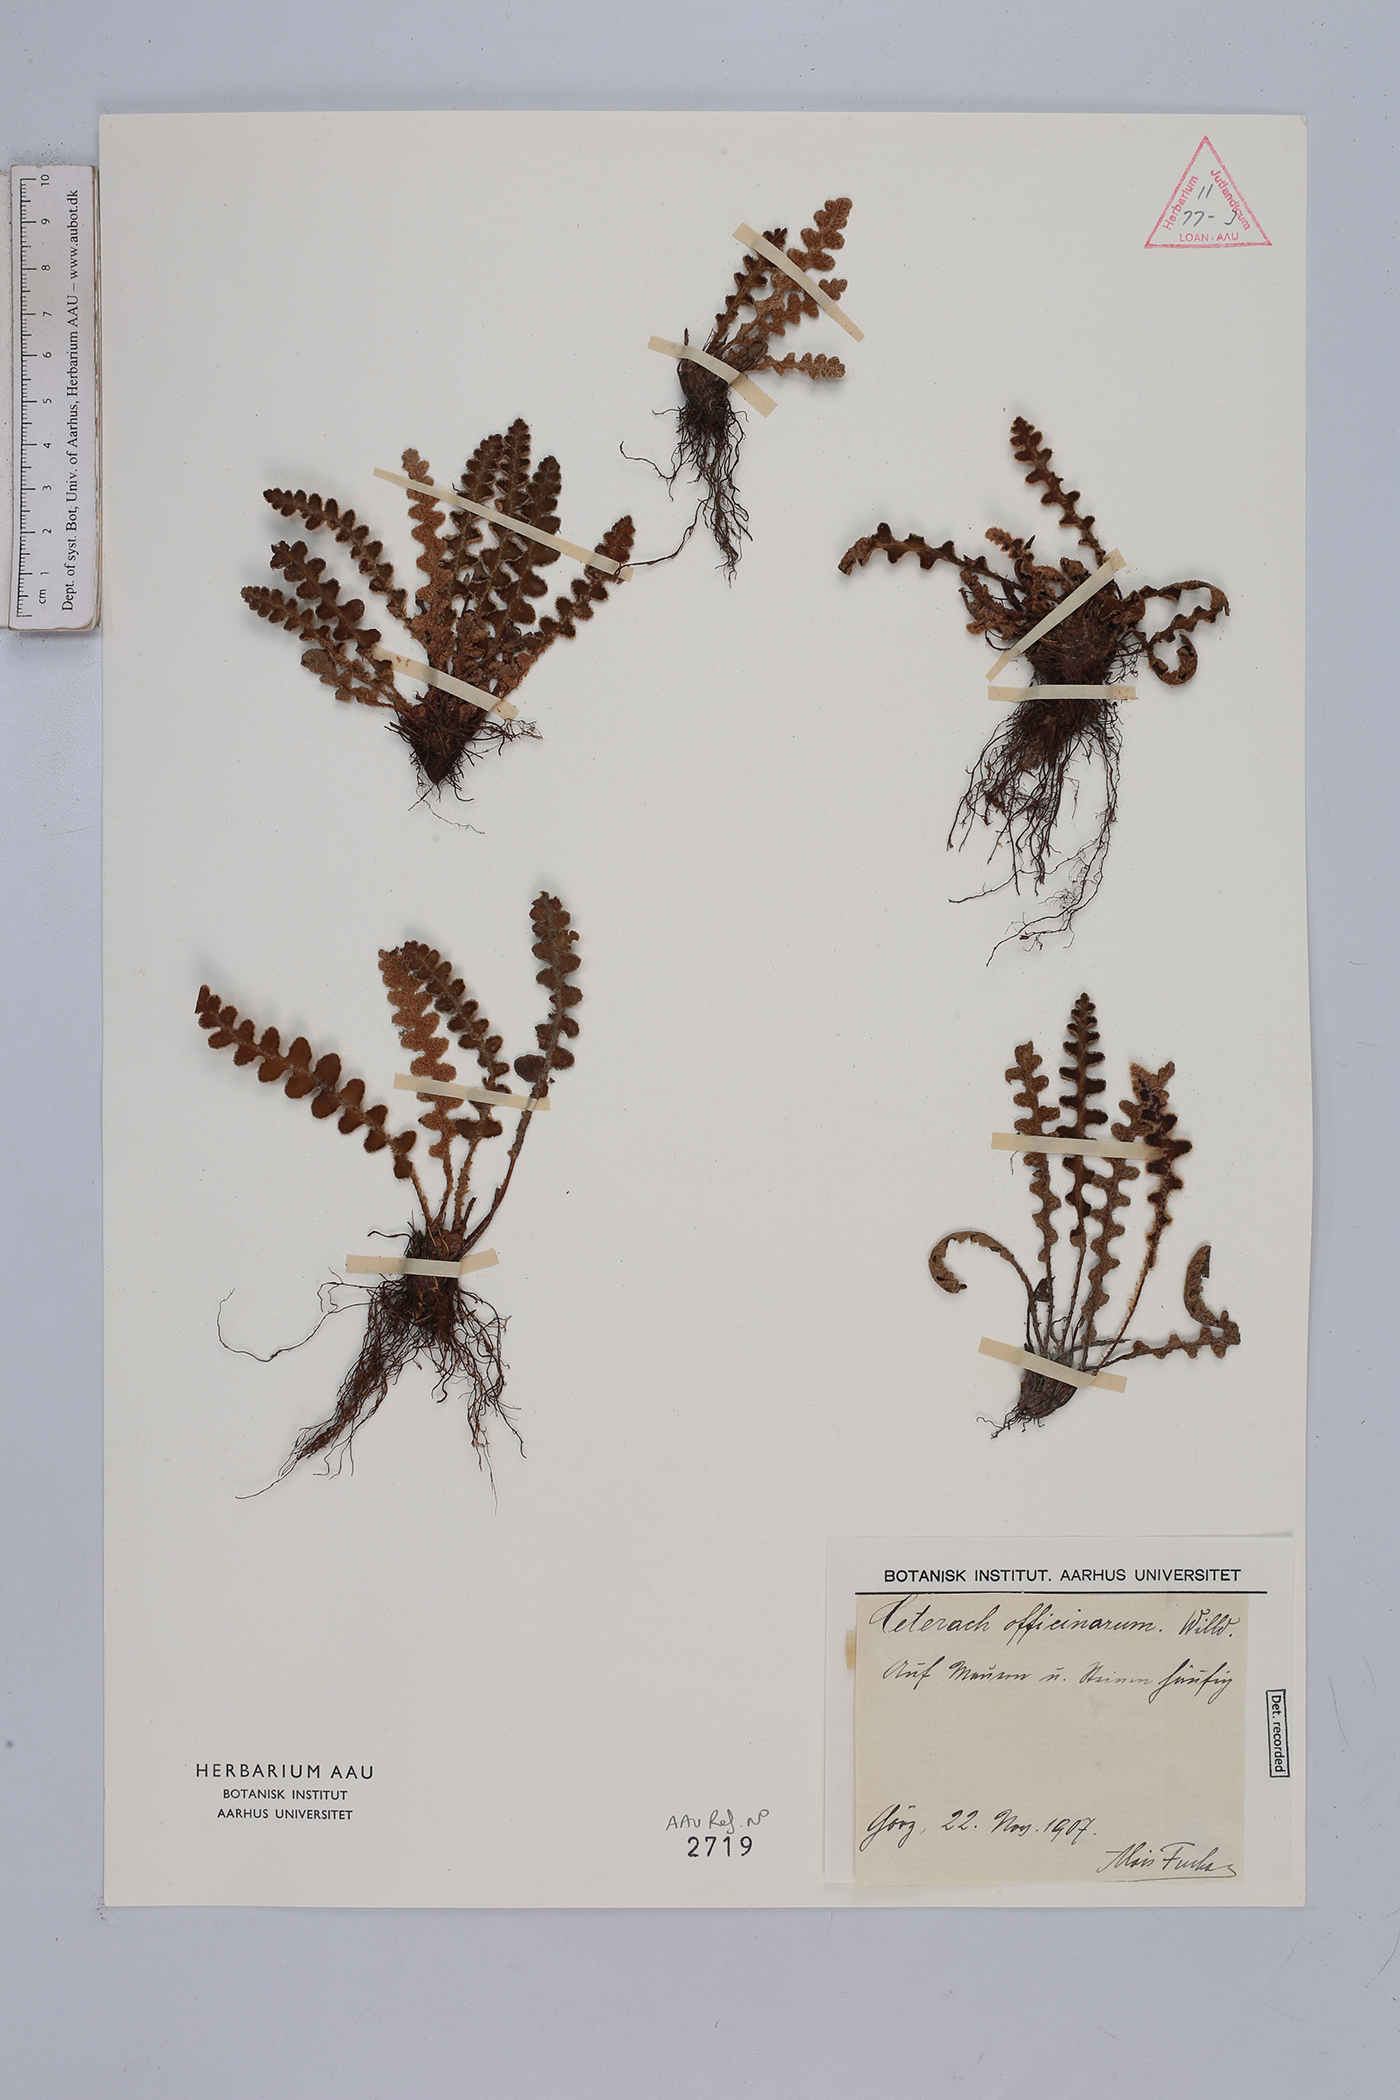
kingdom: Plantae
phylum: Tracheophyta
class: Polypodiopsida
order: Polypodiales
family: Aspleniaceae
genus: Asplenium
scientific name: Asplenium ceterach
